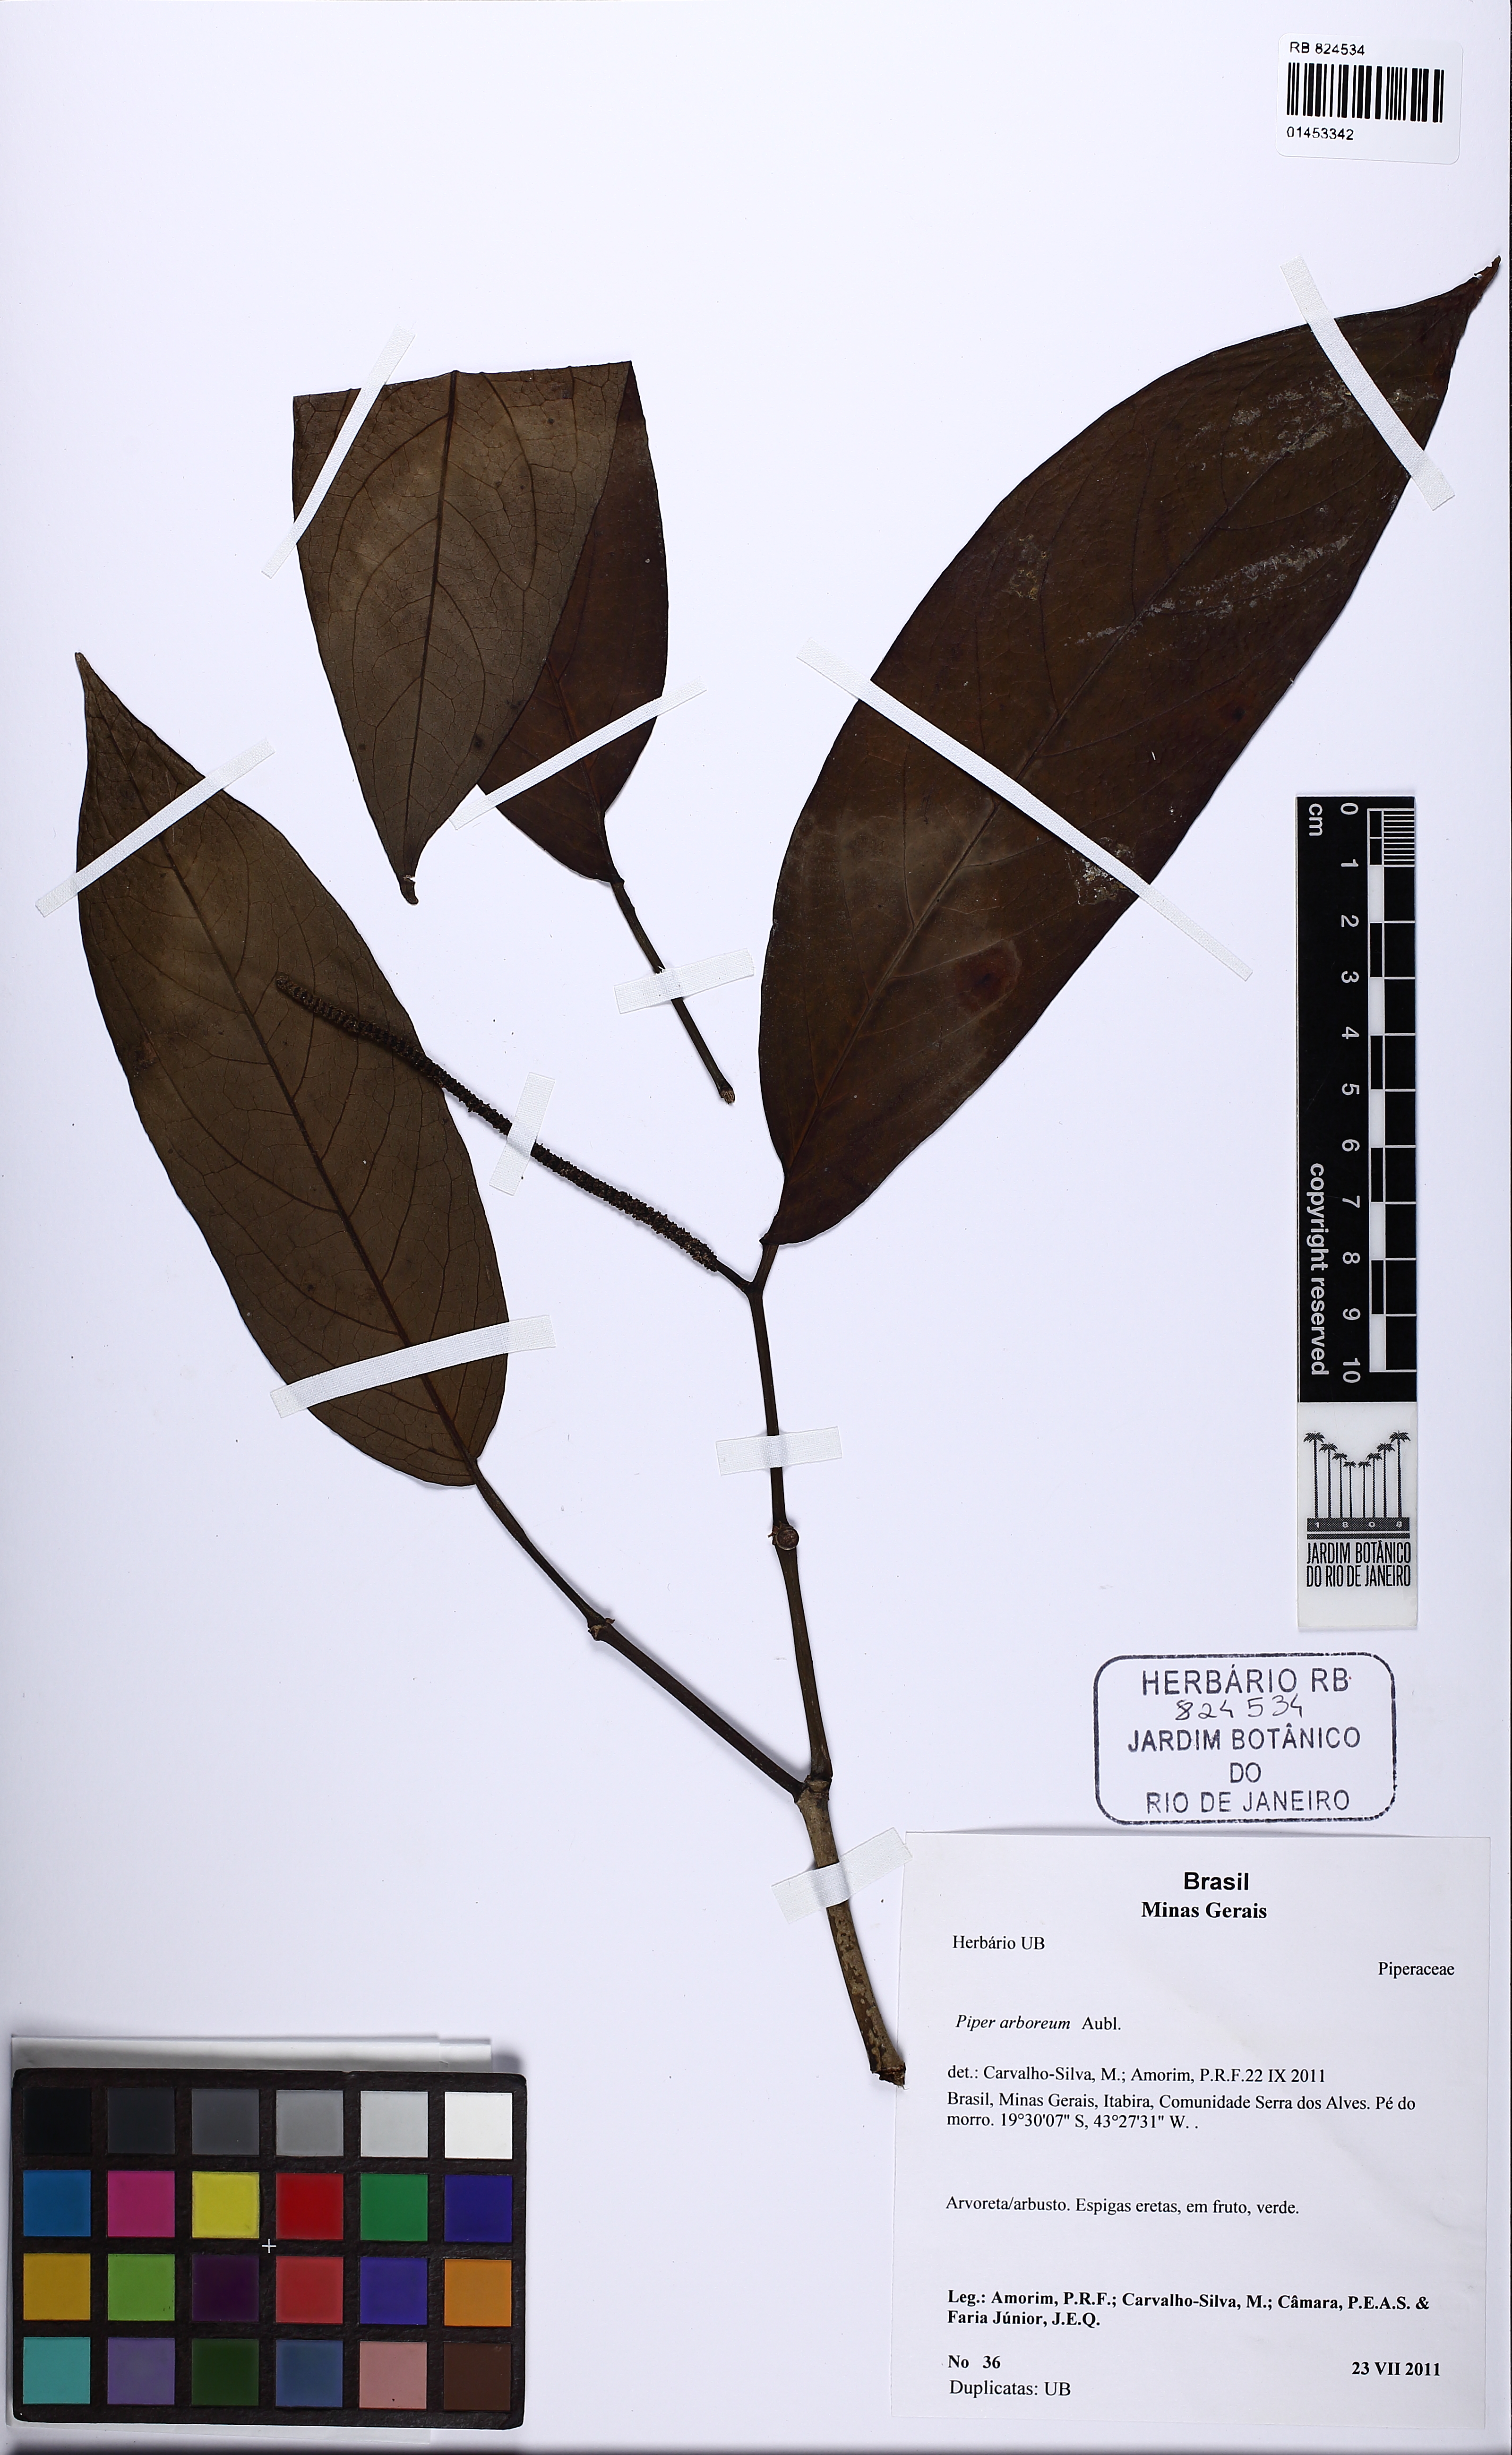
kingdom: Plantae
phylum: Tracheophyta
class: Magnoliopsida
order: Piperales
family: Piperaceae
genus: Piper
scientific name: Piper arboreum
